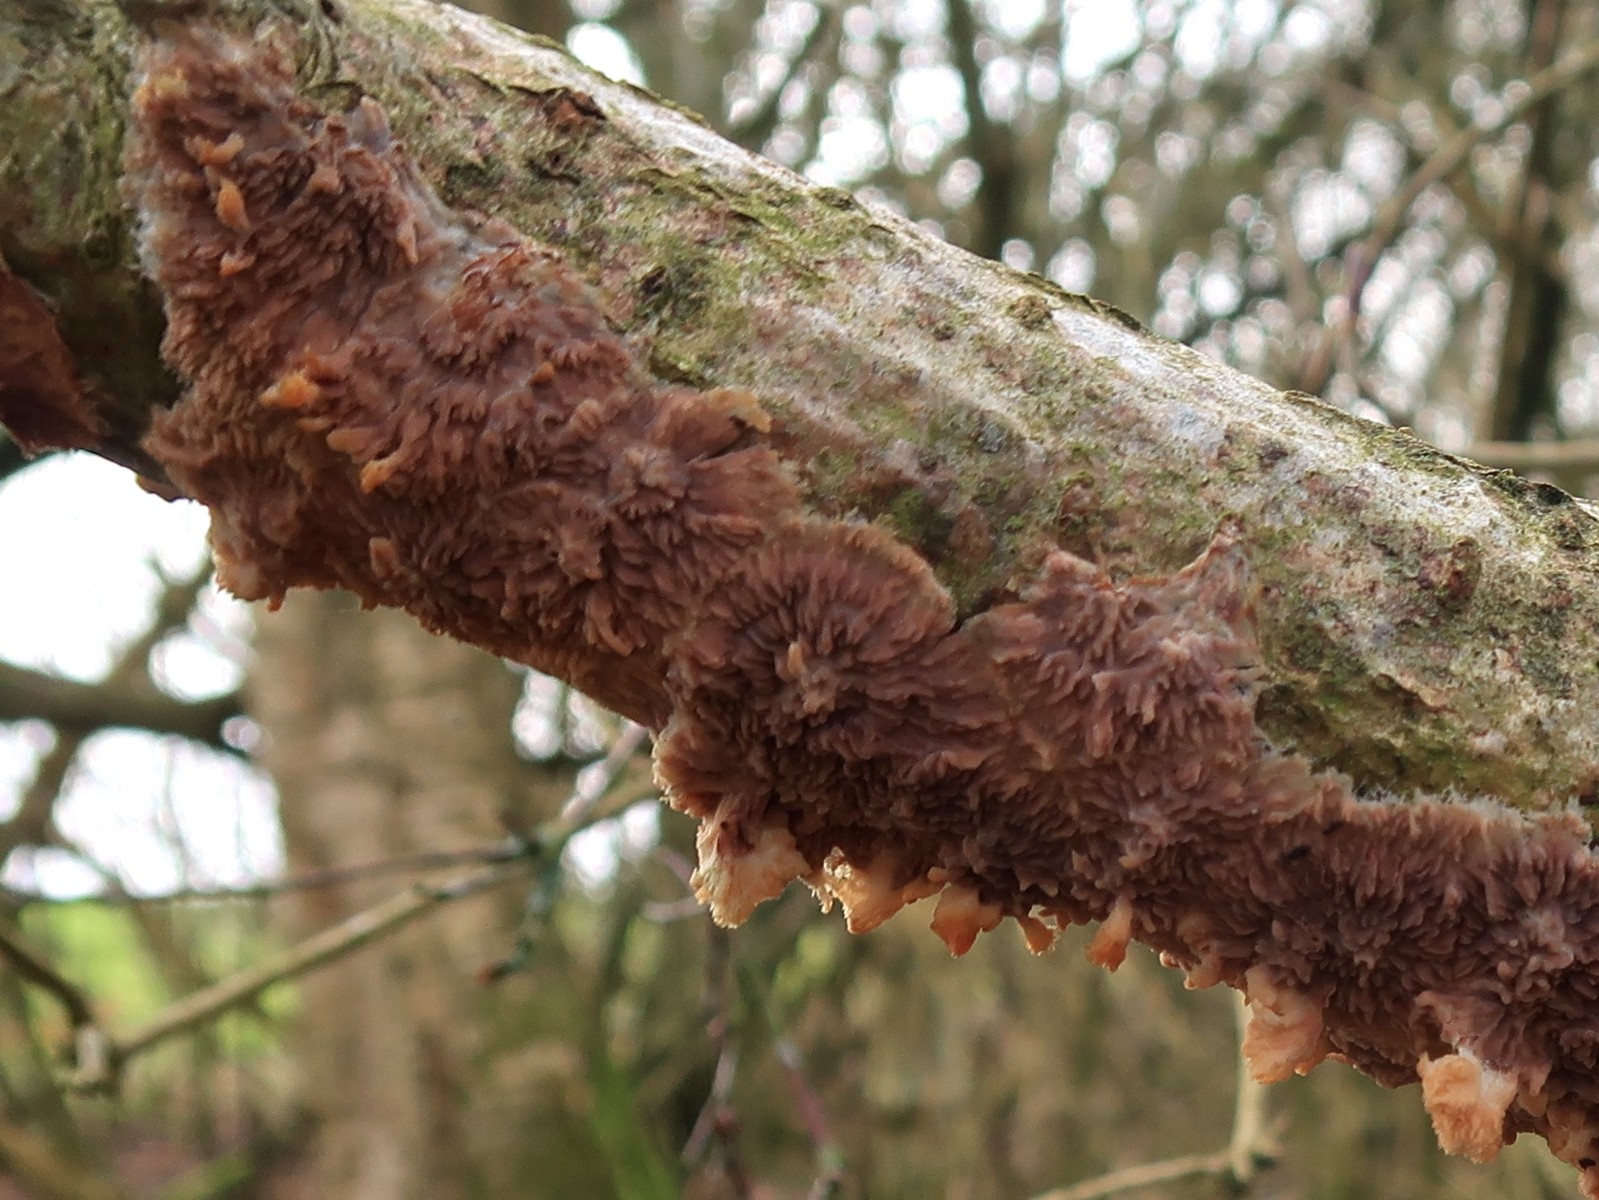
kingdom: Fungi
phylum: Basidiomycota
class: Agaricomycetes
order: Polyporales
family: Meruliaceae
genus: Phlebia
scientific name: Phlebia radiata
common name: stråle-åresvamp
